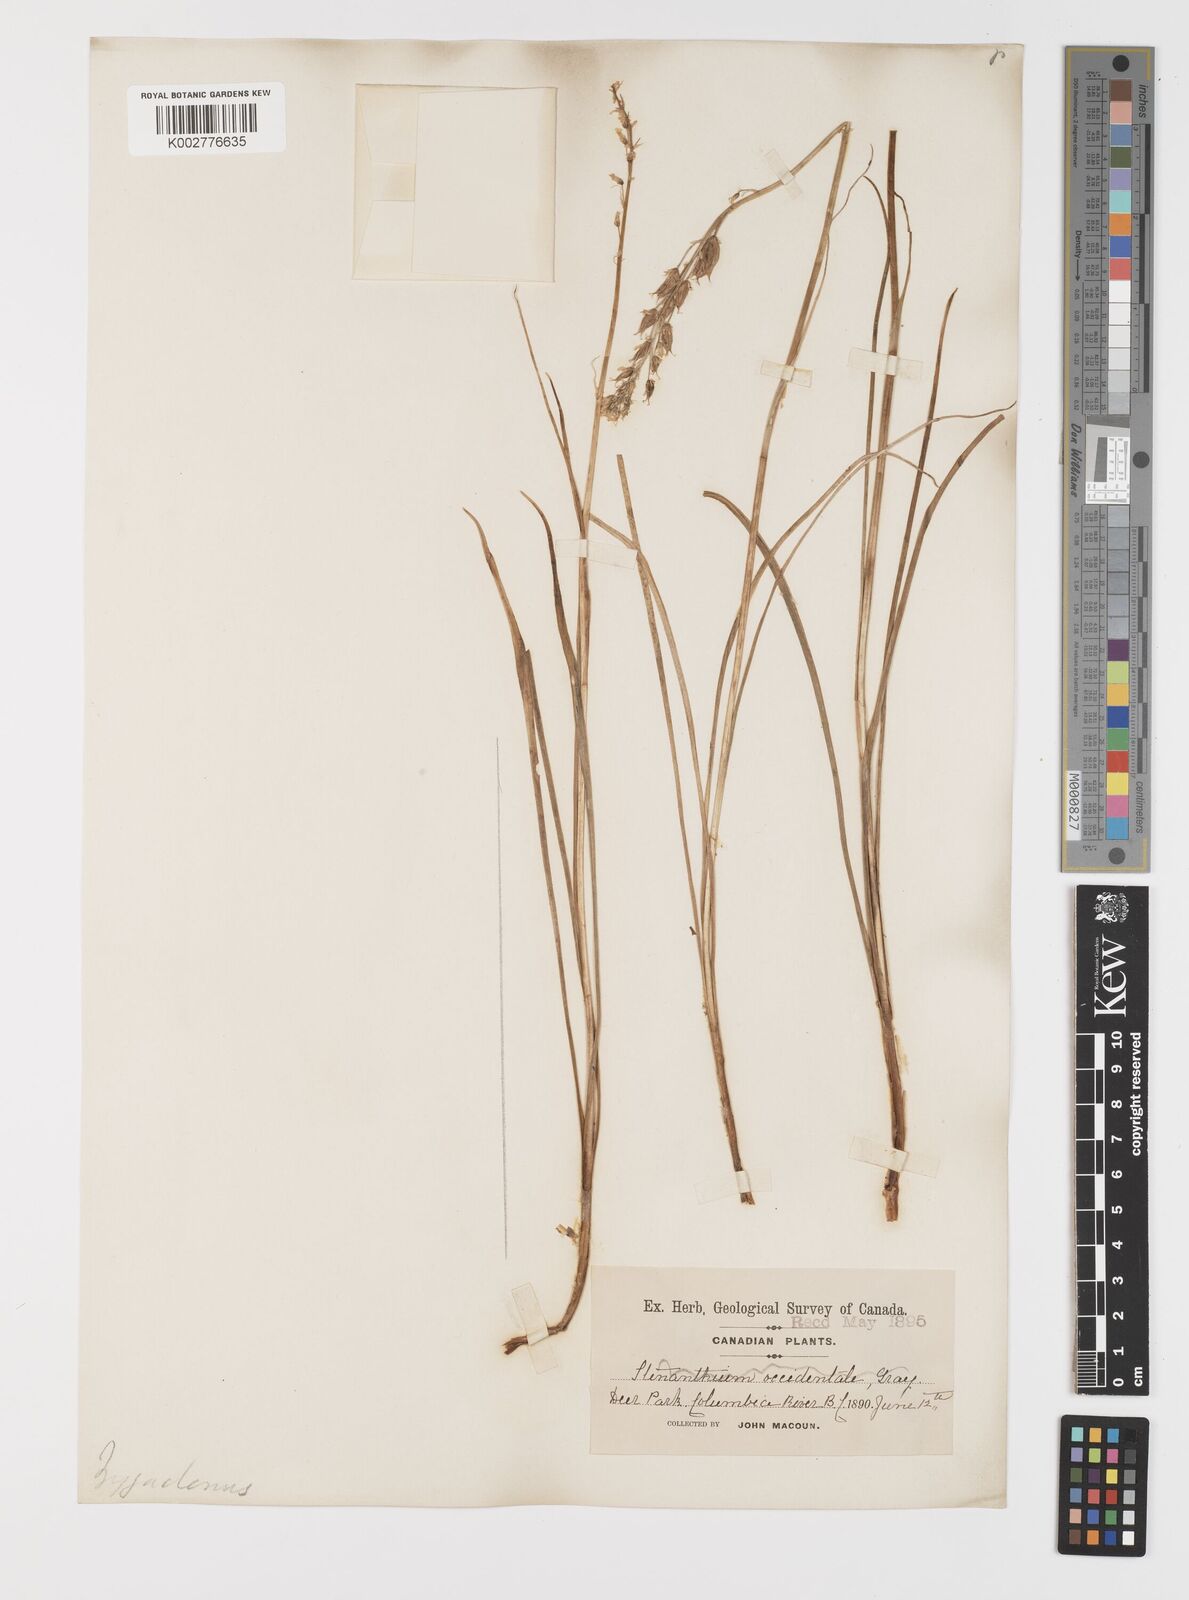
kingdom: Plantae
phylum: Tracheophyta
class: Liliopsida
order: Liliales
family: Melanthiaceae
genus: Toxicoscordion
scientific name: Toxicoscordion venenosum
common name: Meadow death camas
